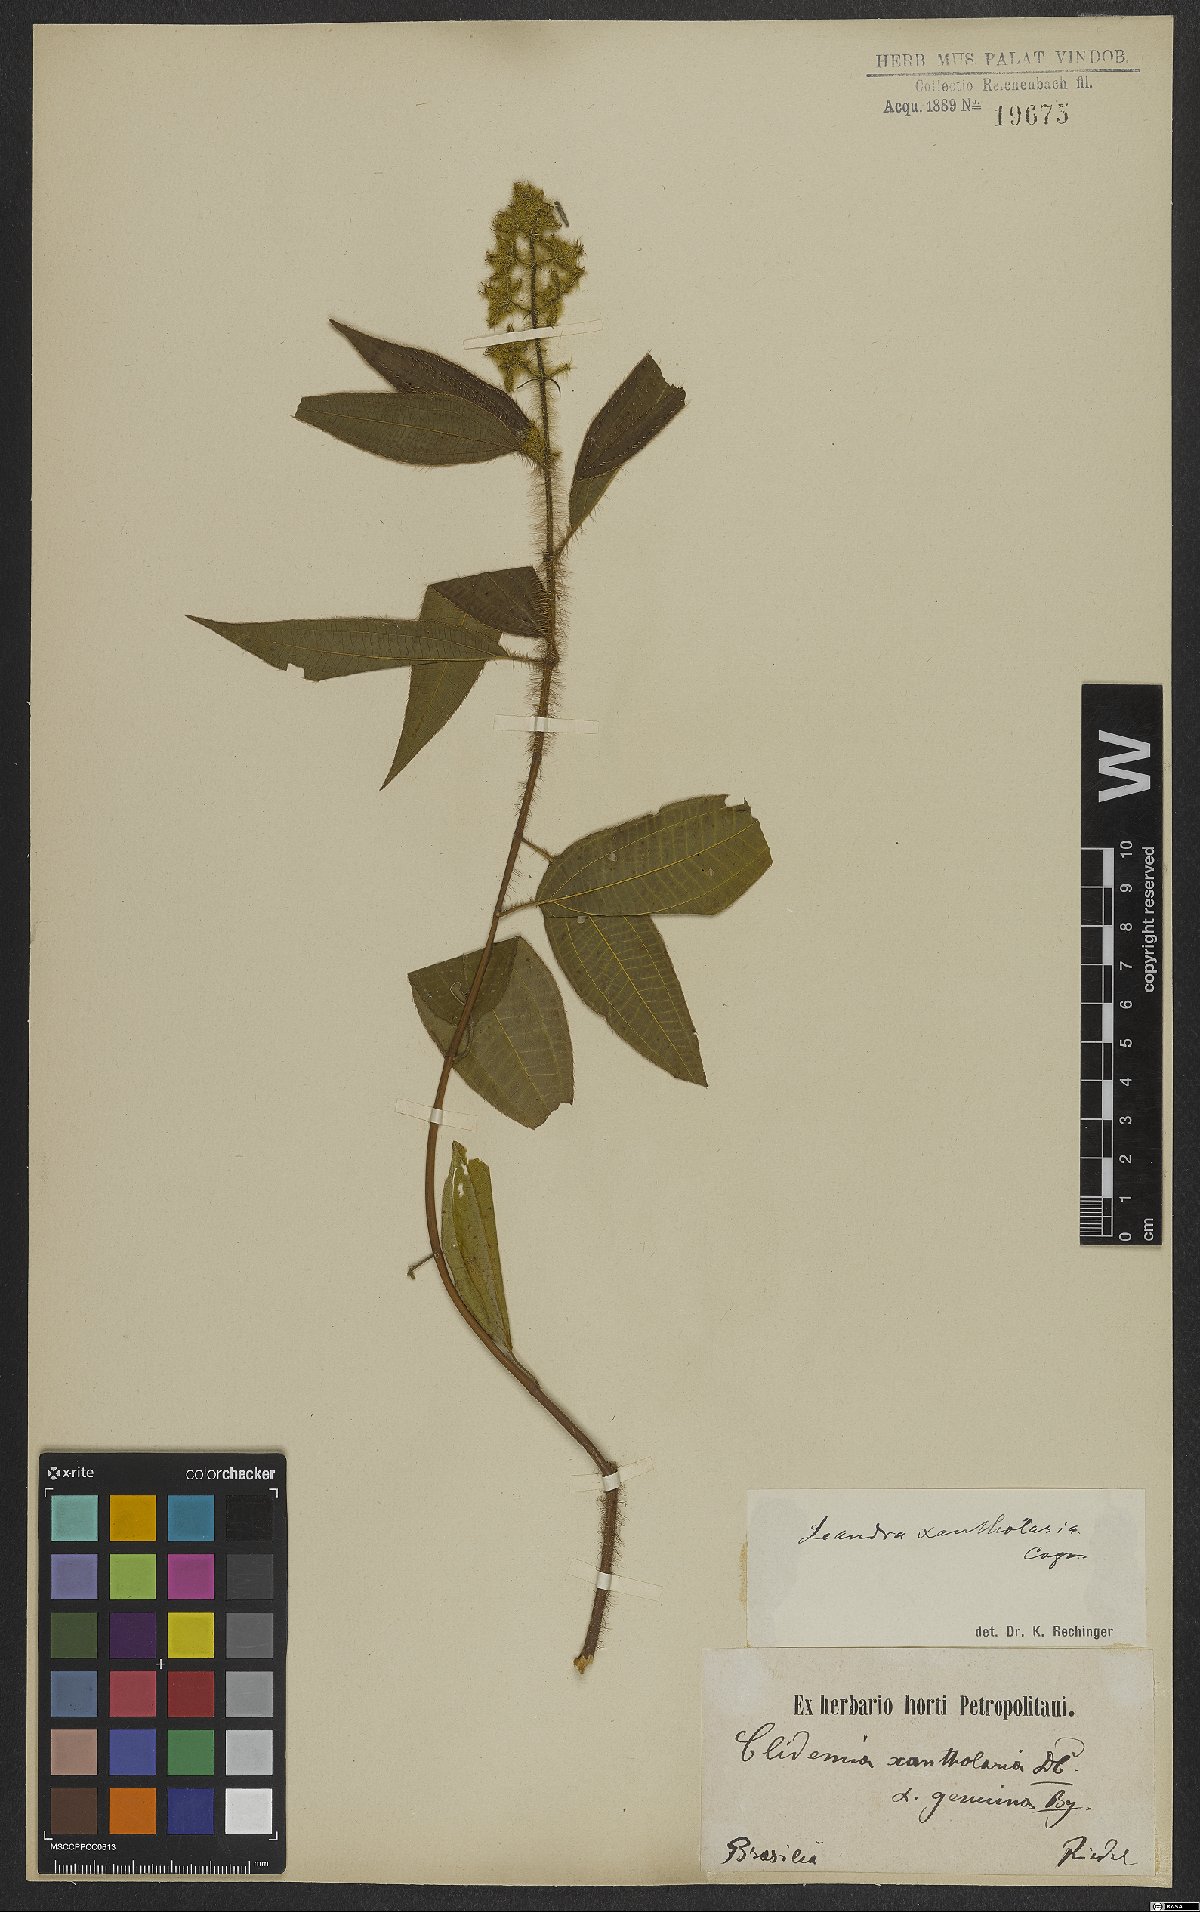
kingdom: Plantae
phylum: Tracheophyta
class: Magnoliopsida
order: Myrtales
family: Melastomataceae
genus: Miconia
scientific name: Miconia xantholasia
